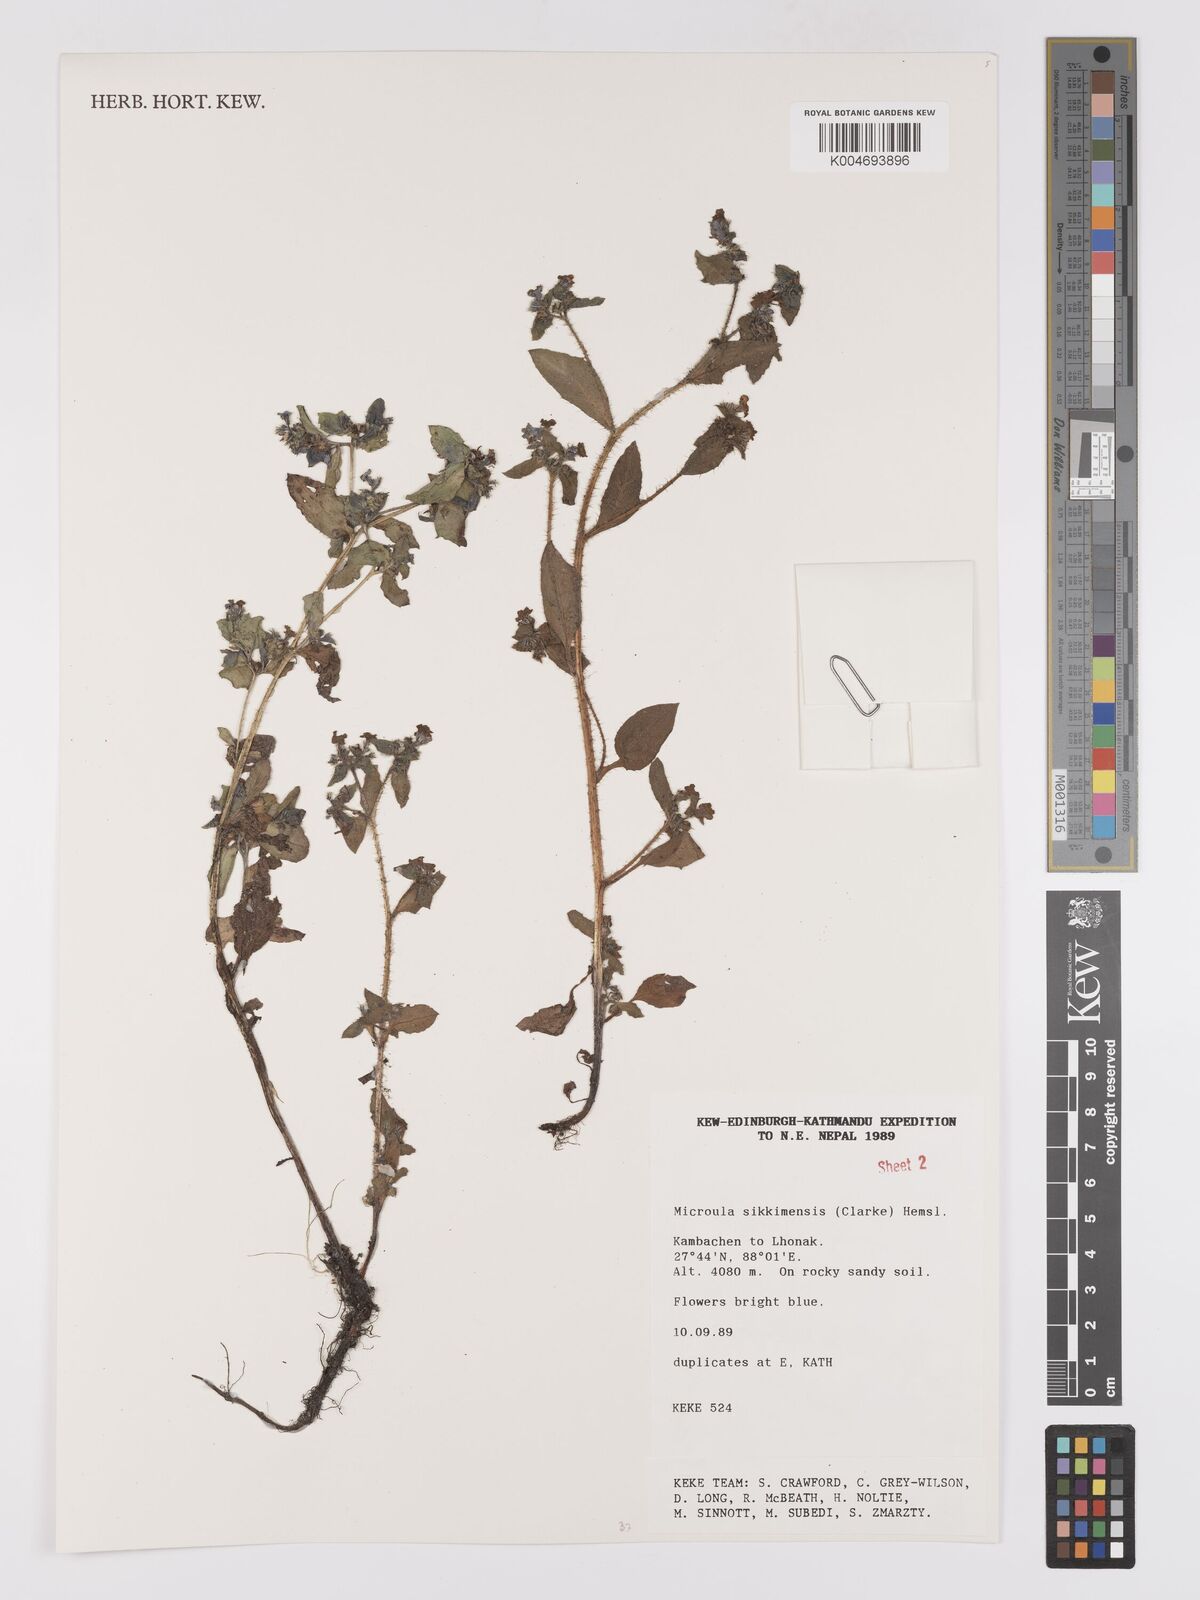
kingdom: Plantae
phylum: Tracheophyta
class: Magnoliopsida
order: Boraginales
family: Boraginaceae
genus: Microula
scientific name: Microula sikkimensis
